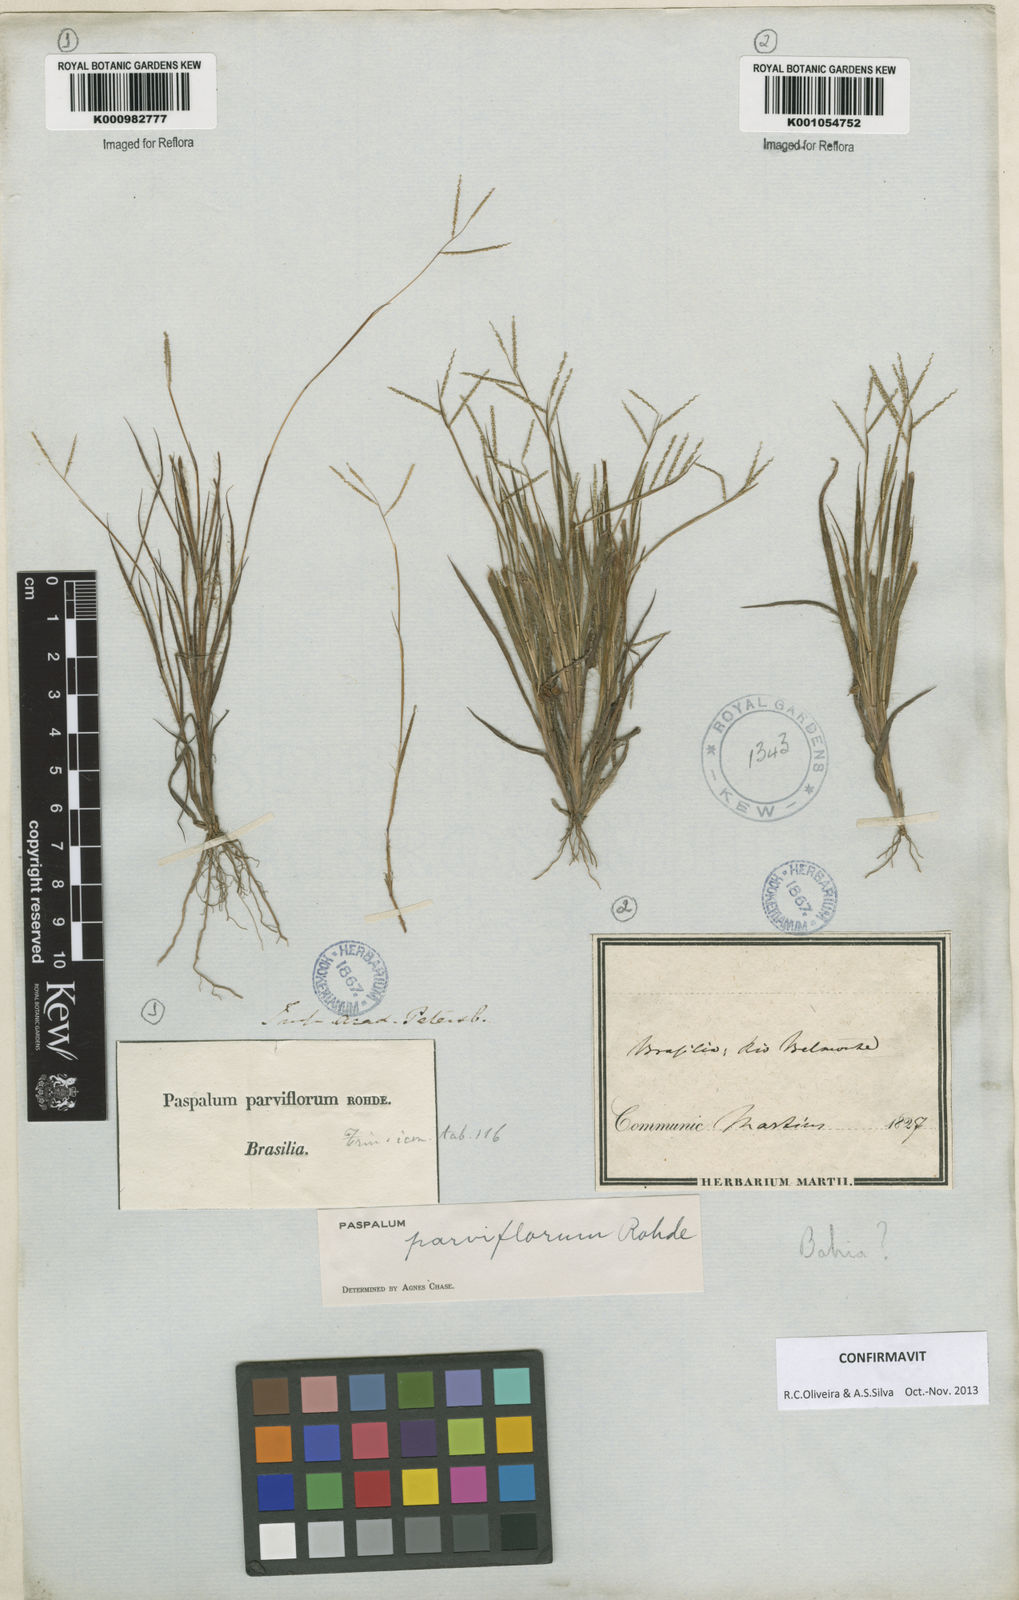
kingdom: Plantae
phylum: Tracheophyta
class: Liliopsida
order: Poales
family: Poaceae
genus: Paspalum
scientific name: Paspalum
